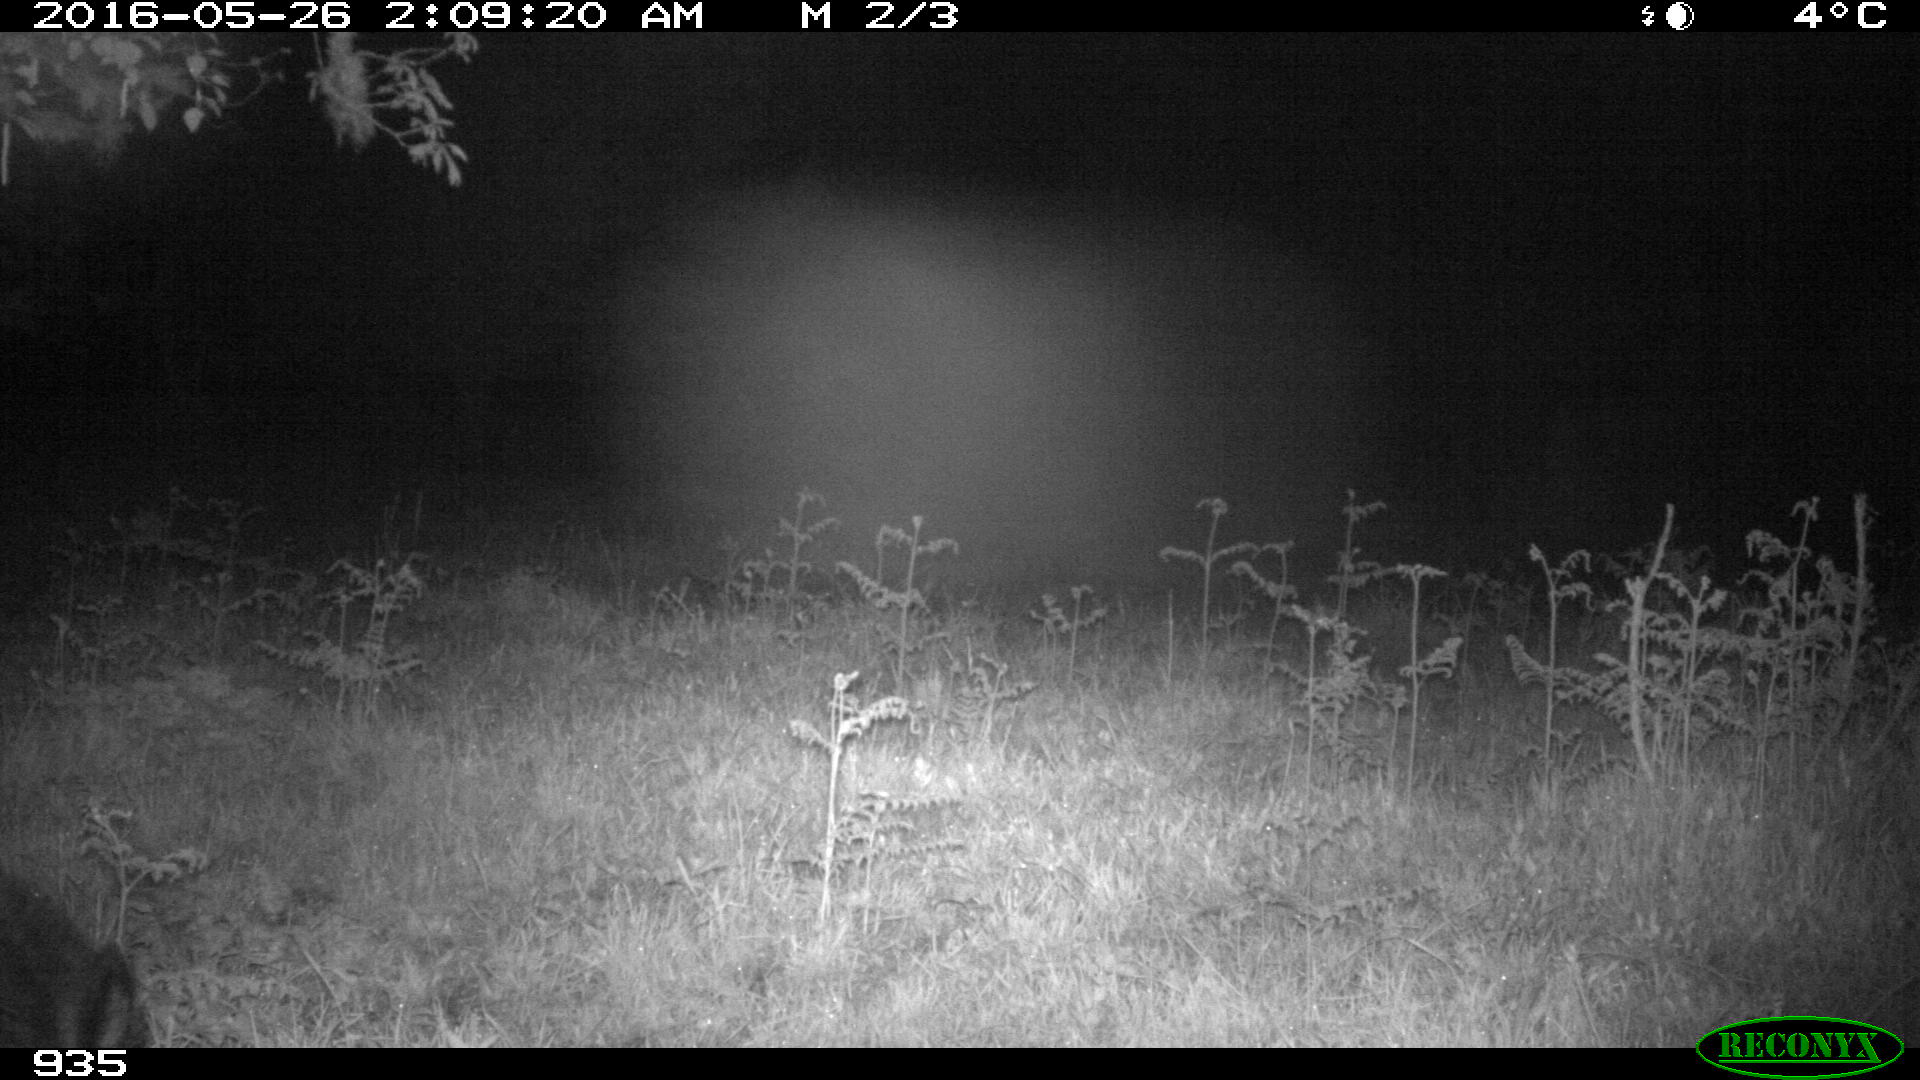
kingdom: Animalia
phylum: Chordata
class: Mammalia
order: Artiodactyla
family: Suidae
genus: Sus
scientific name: Sus scrofa
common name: Wild boar
